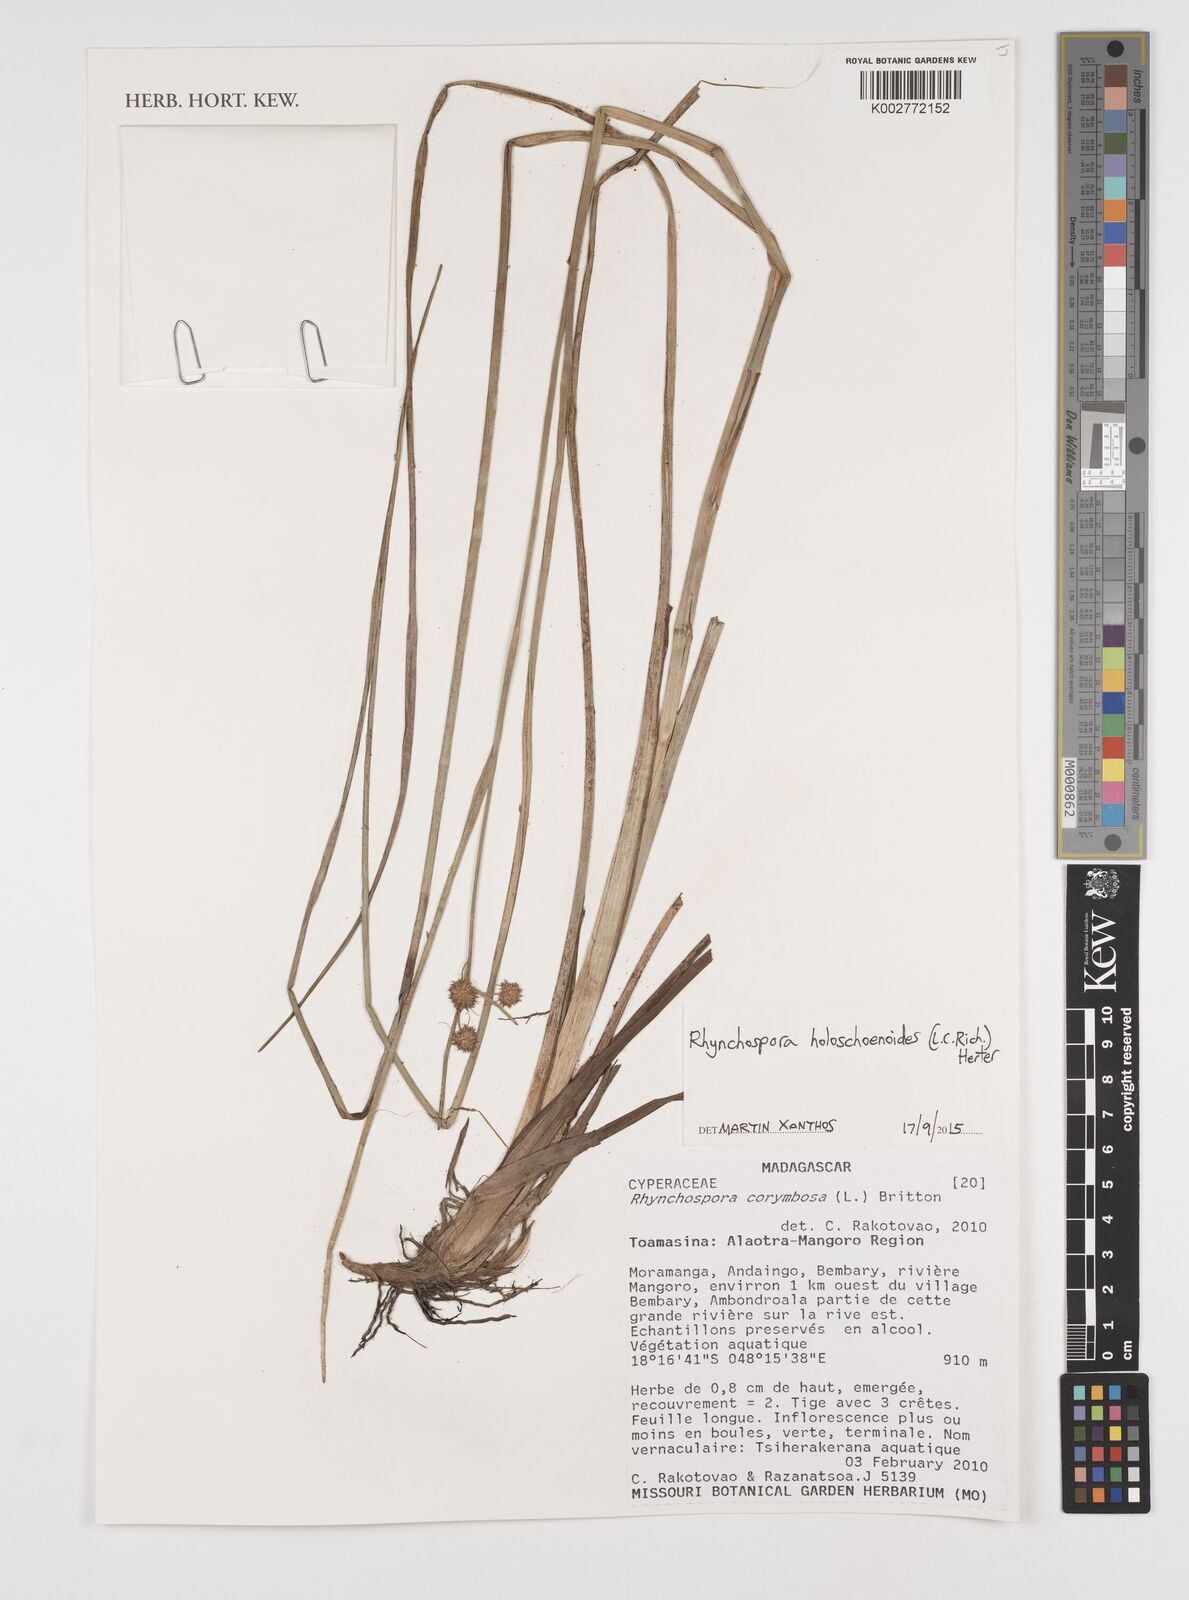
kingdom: Plantae
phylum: Tracheophyta
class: Liliopsida
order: Poales
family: Cyperaceae
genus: Rhynchospora
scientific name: Rhynchospora holoschoenoides
